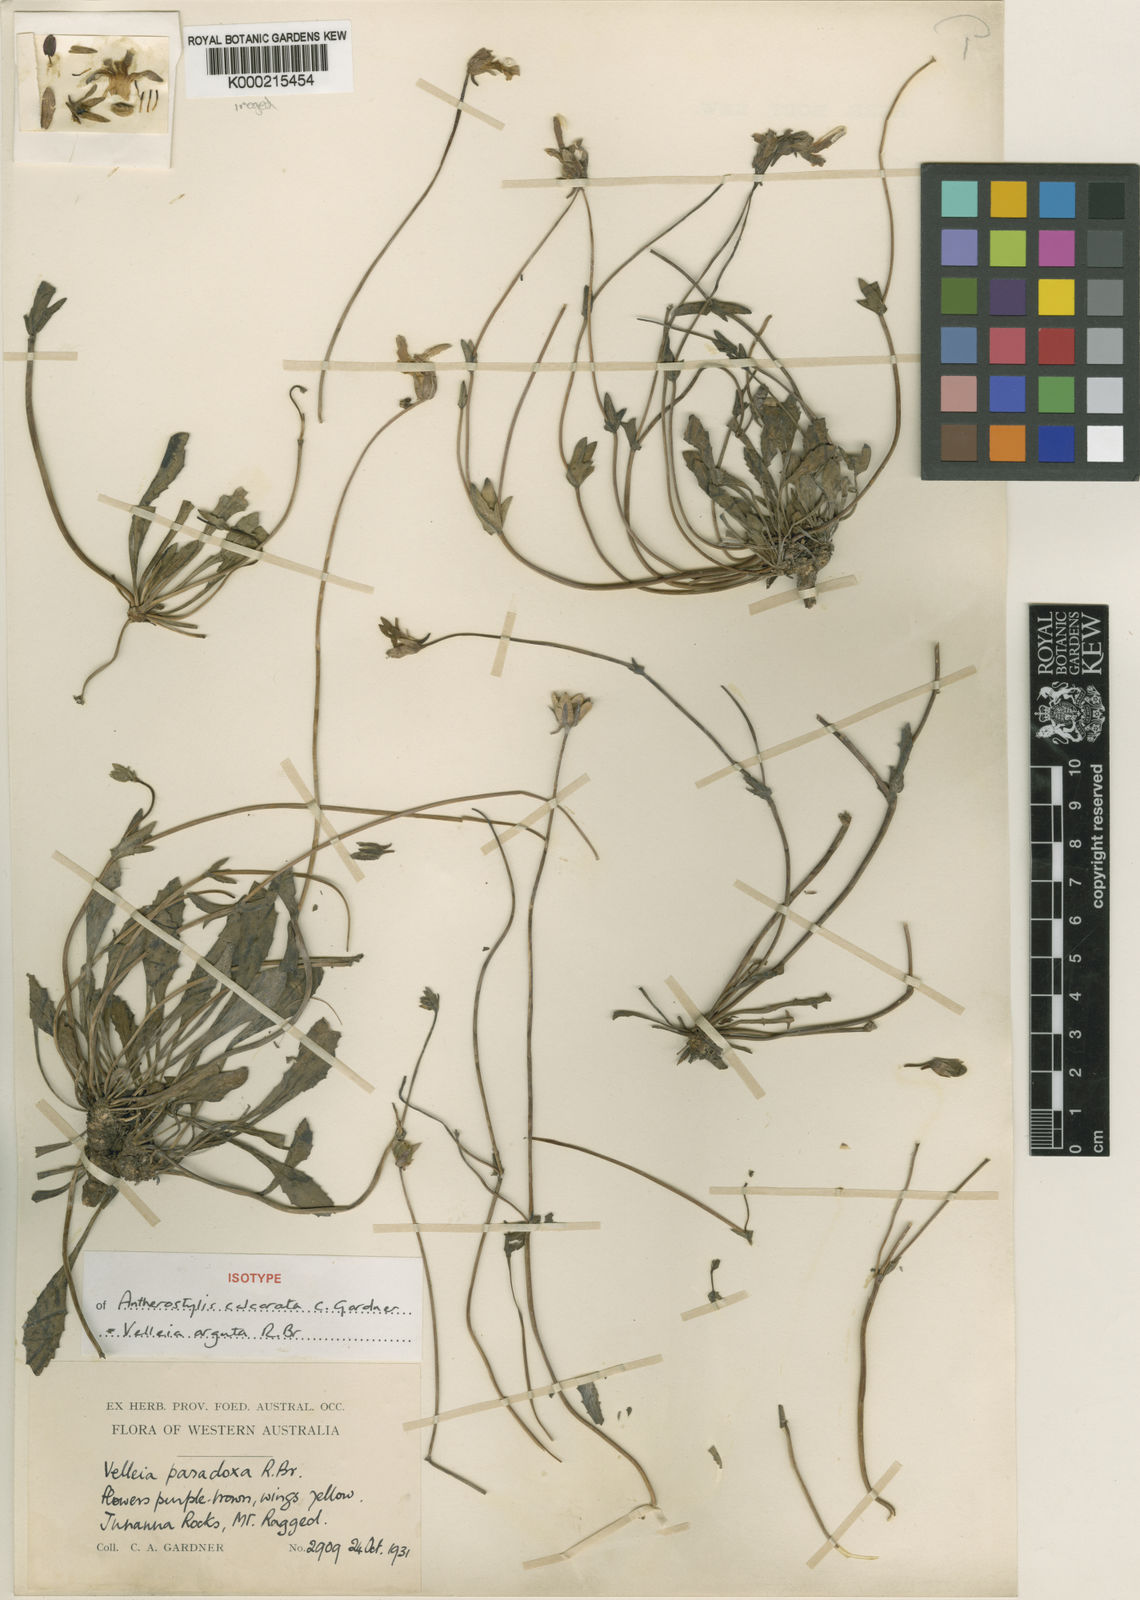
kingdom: Plantae
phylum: Tracheophyta
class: Magnoliopsida
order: Asterales
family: Goodeniaceae
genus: Goodenia
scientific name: Goodenia arguta
